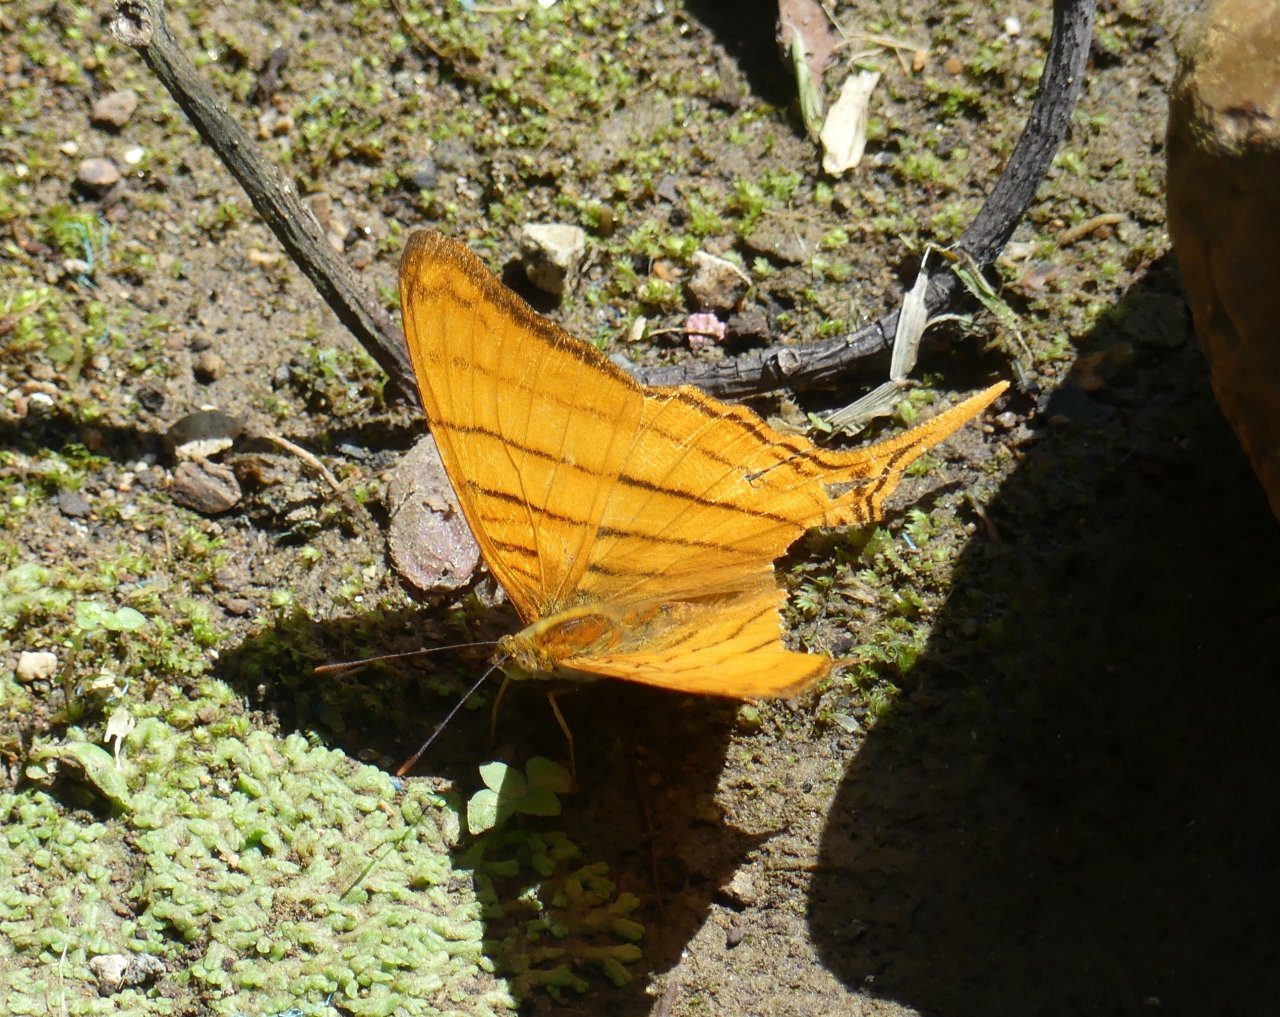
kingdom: Animalia
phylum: Arthropoda
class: Insecta
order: Lepidoptera
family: Nymphalidae
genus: Marpesia
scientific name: Marpesia harmonia
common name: Pale Daggerwing
